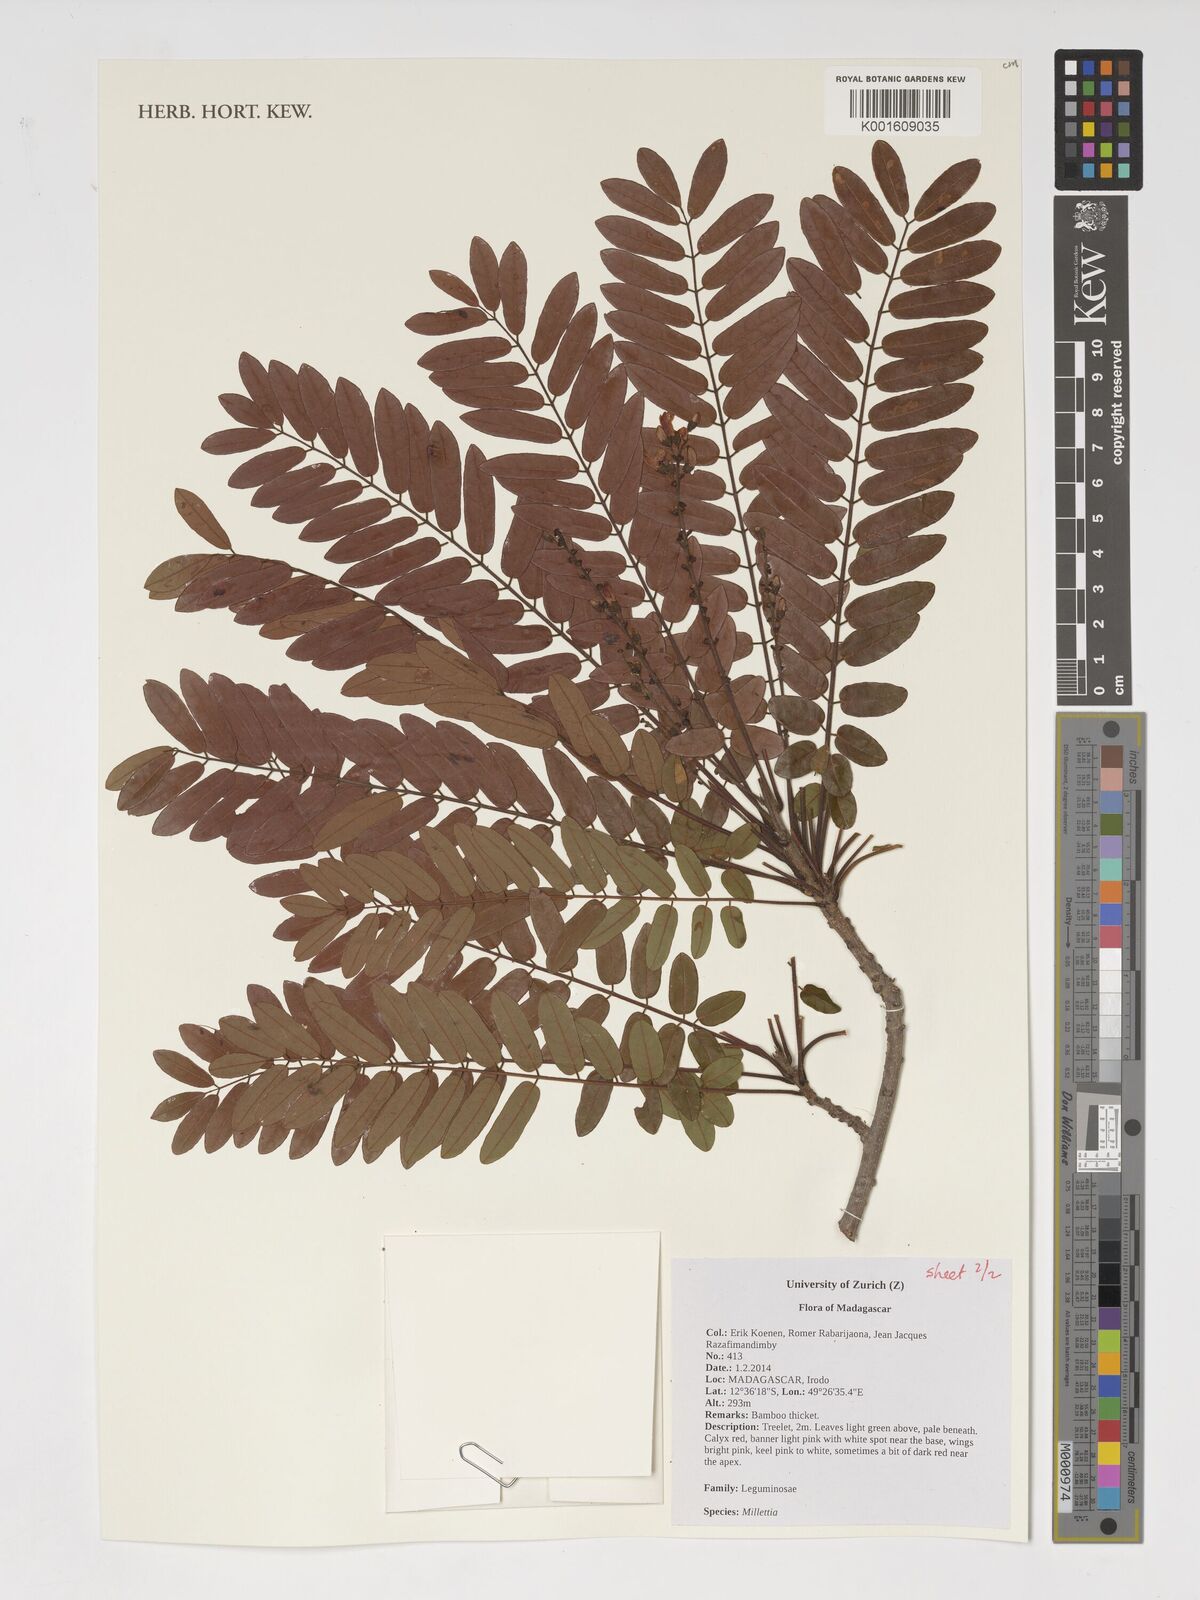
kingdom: Plantae
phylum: Tracheophyta
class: Magnoliopsida
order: Fabales
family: Fabaceae
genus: Millettia
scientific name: Millettia
